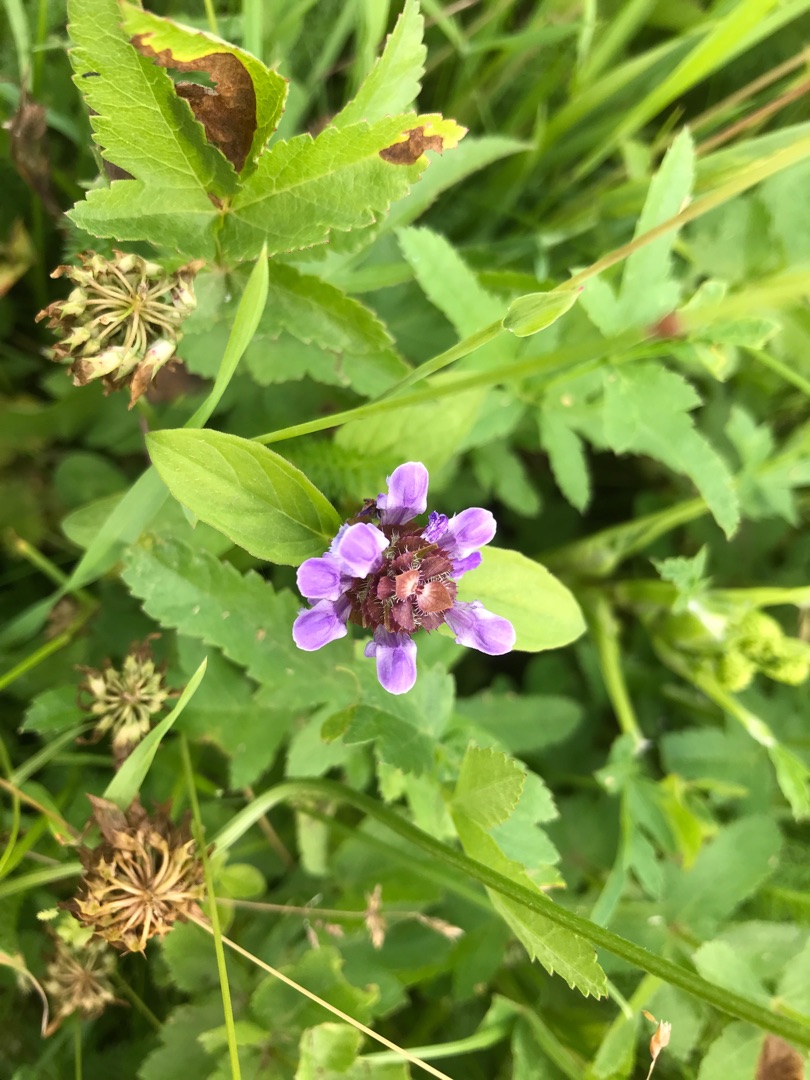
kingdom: Plantae
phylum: Tracheophyta
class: Magnoliopsida
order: Lamiales
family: Lamiaceae
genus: Prunella
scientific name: Prunella vulgaris
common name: Almindelig brunelle
